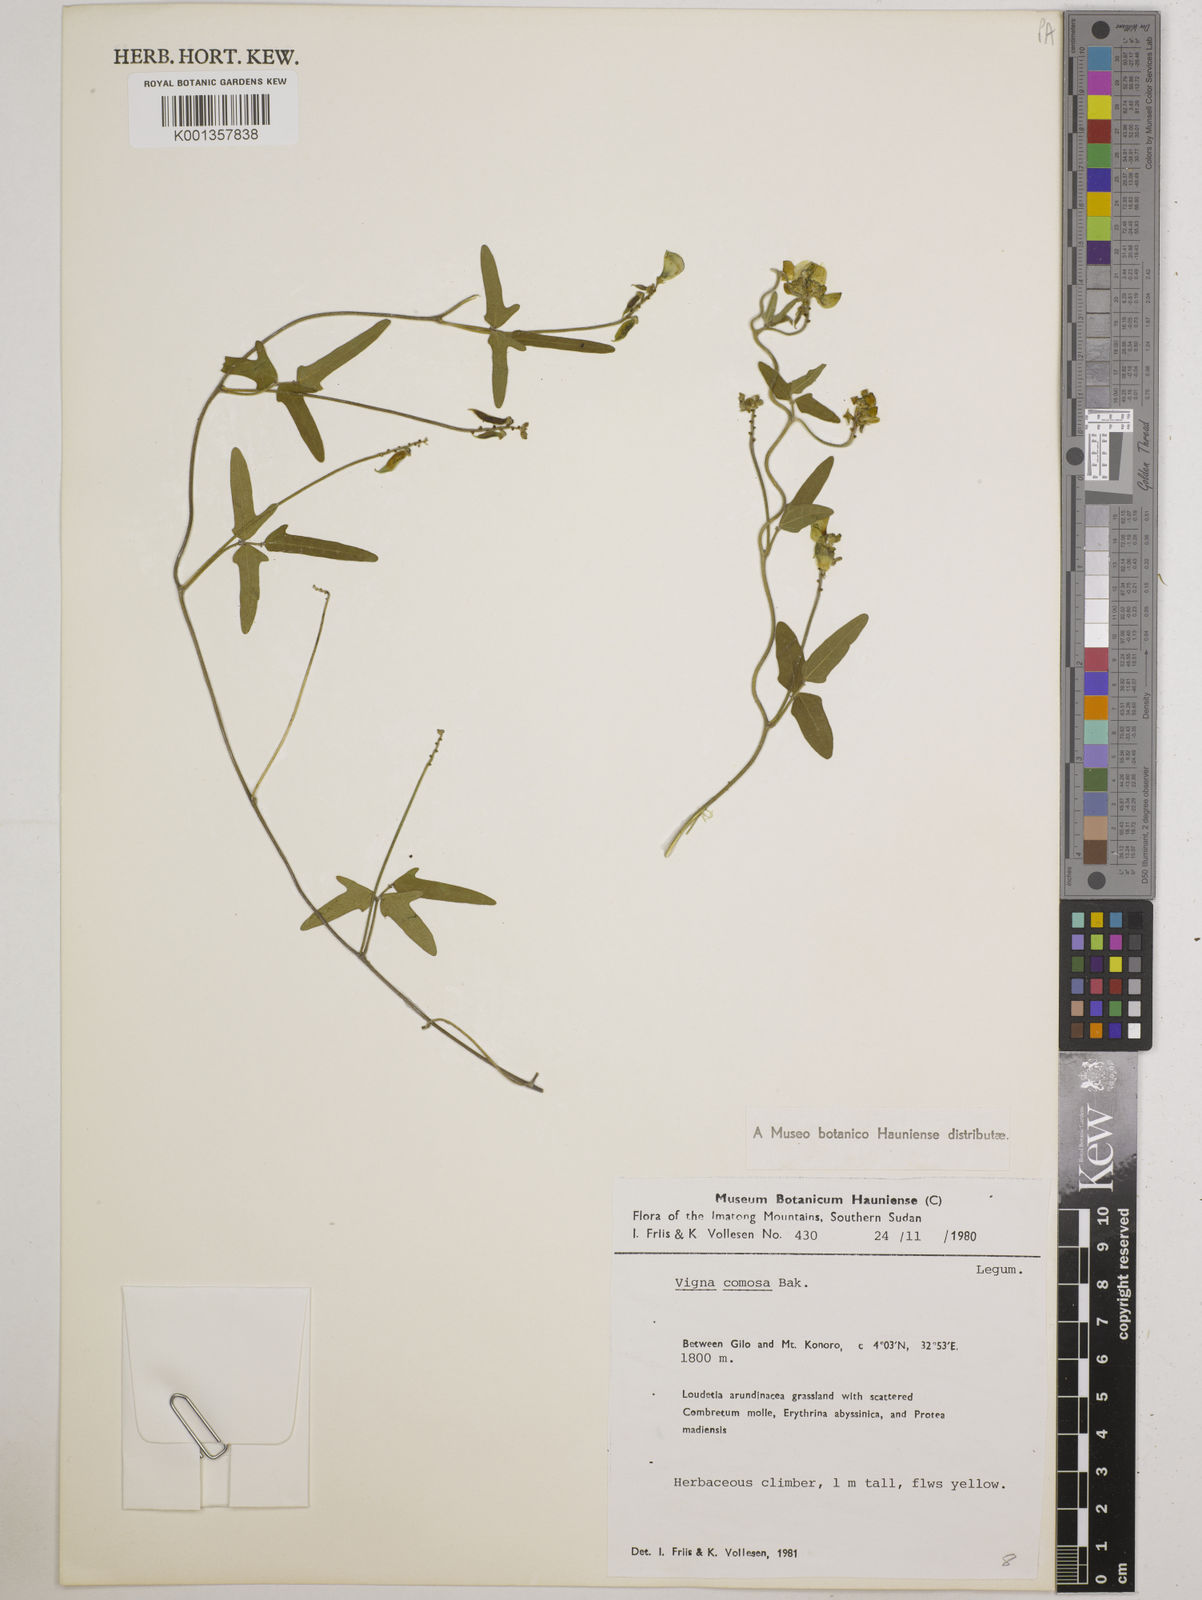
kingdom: Plantae
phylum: Tracheophyta
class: Magnoliopsida
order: Fabales
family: Fabaceae
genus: Vigna
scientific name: Vigna comosa
